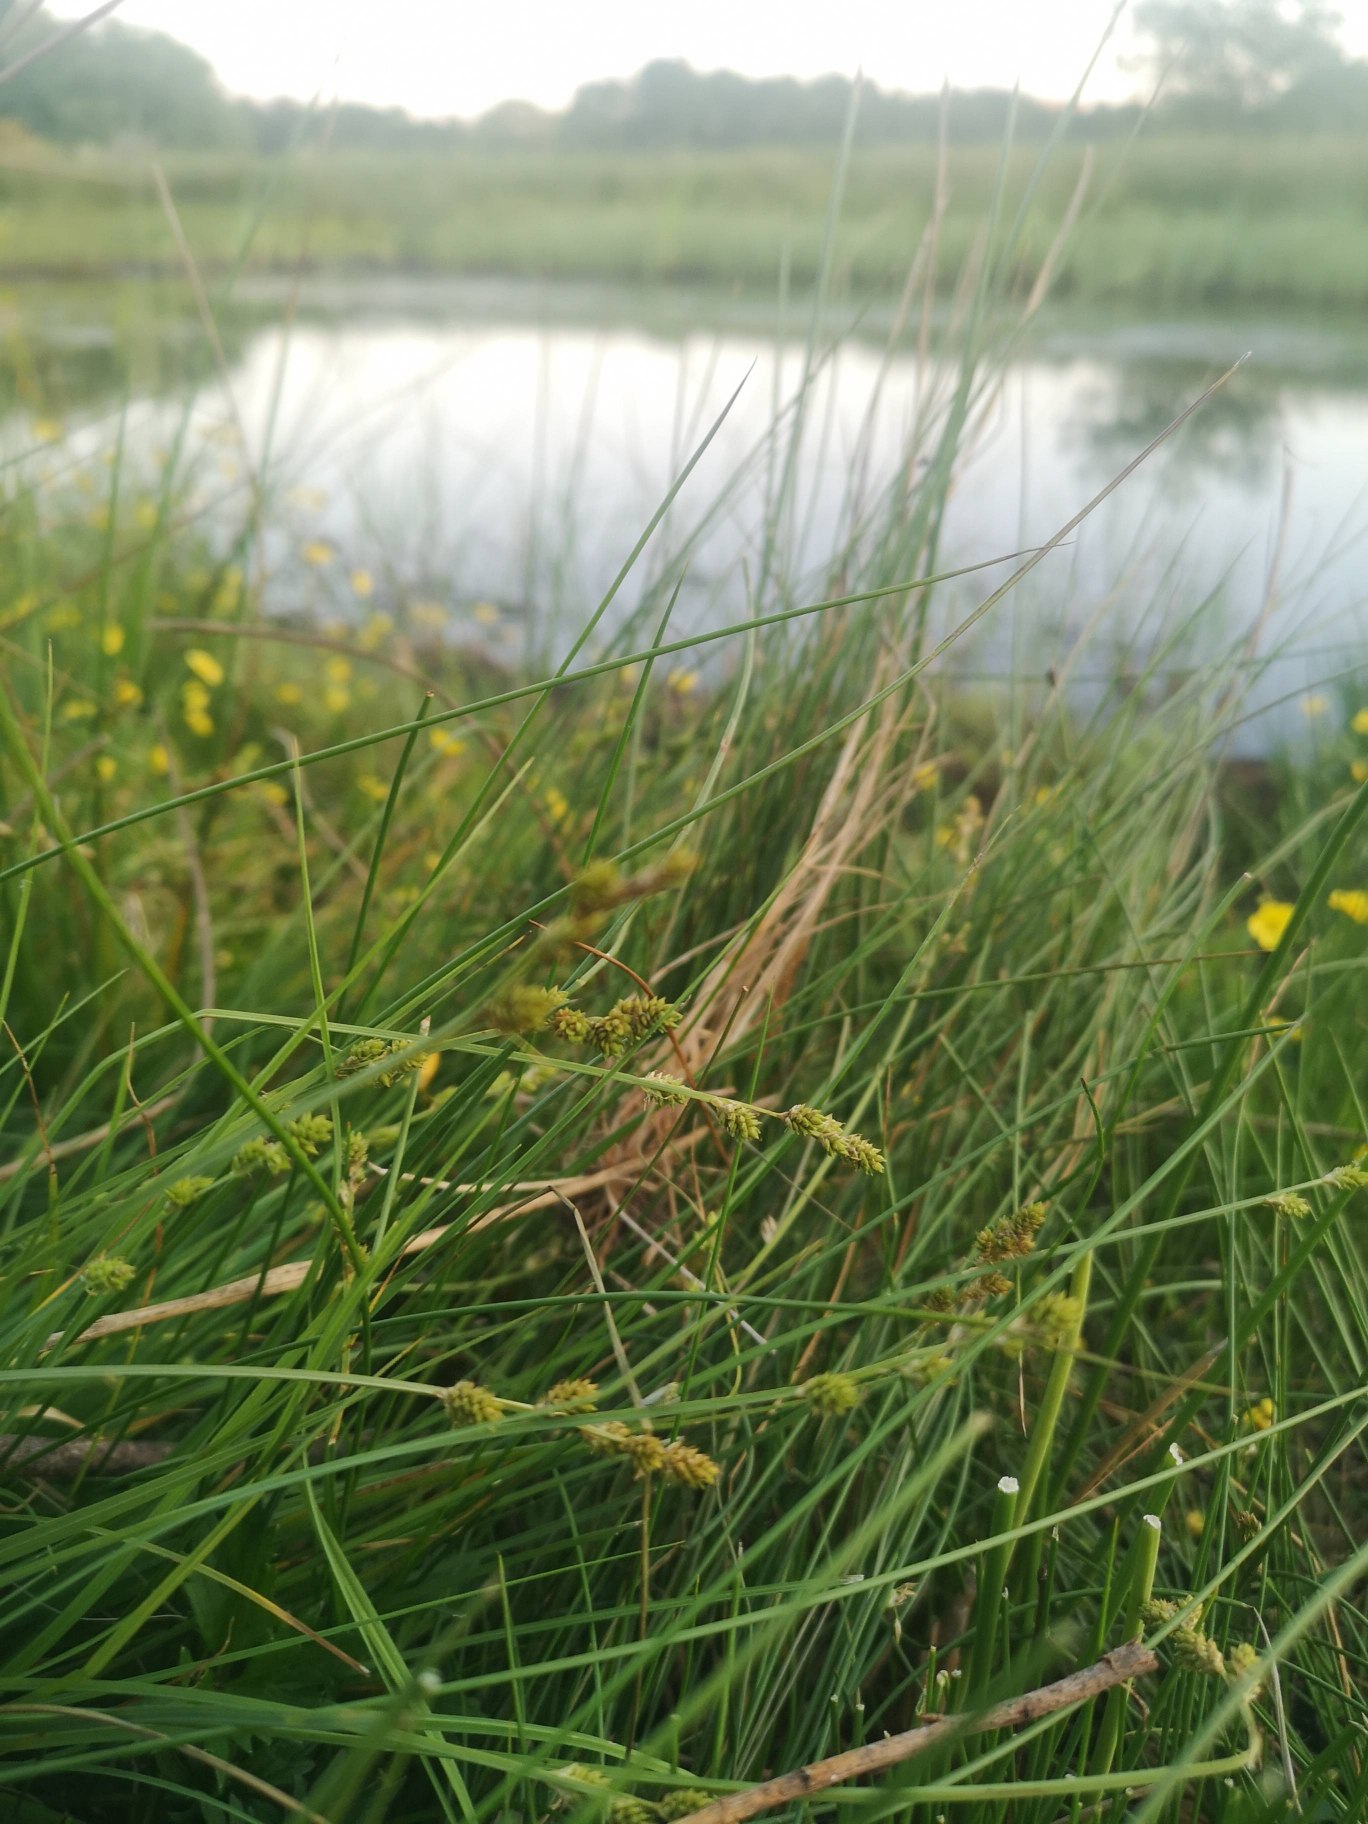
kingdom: Plantae
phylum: Tracheophyta
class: Liliopsida
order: Poales
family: Cyperaceae
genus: Carex
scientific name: Carex canescens
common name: Grå star
